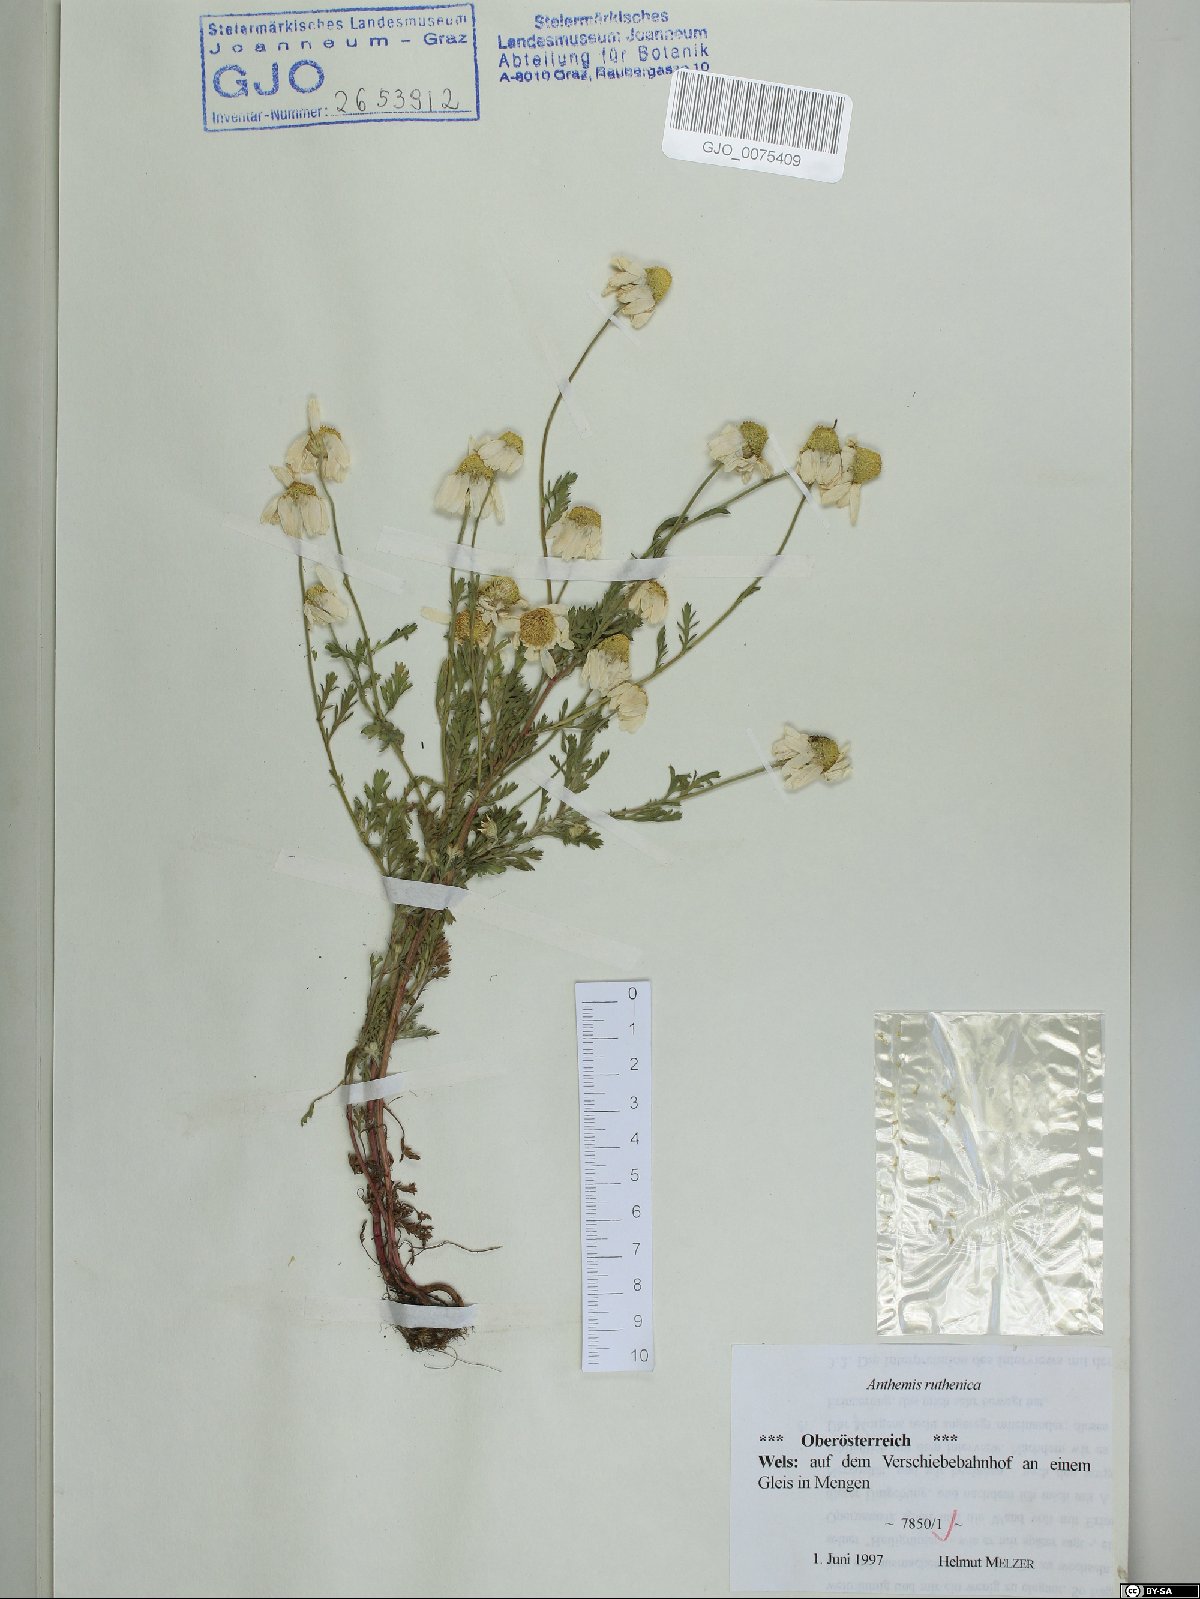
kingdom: Plantae
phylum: Tracheophyta
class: Magnoliopsida
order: Asterales
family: Asteraceae
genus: Anthemis
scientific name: Anthemis ruthenica
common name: Eastern chamomile
